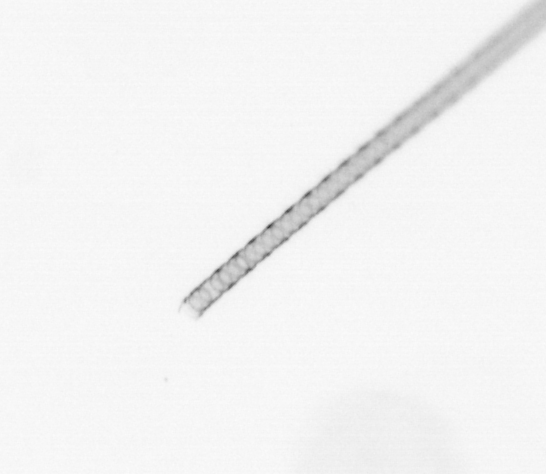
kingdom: Chromista
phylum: Ochrophyta
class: Bacillariophyceae
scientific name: Bacillariophyceae
